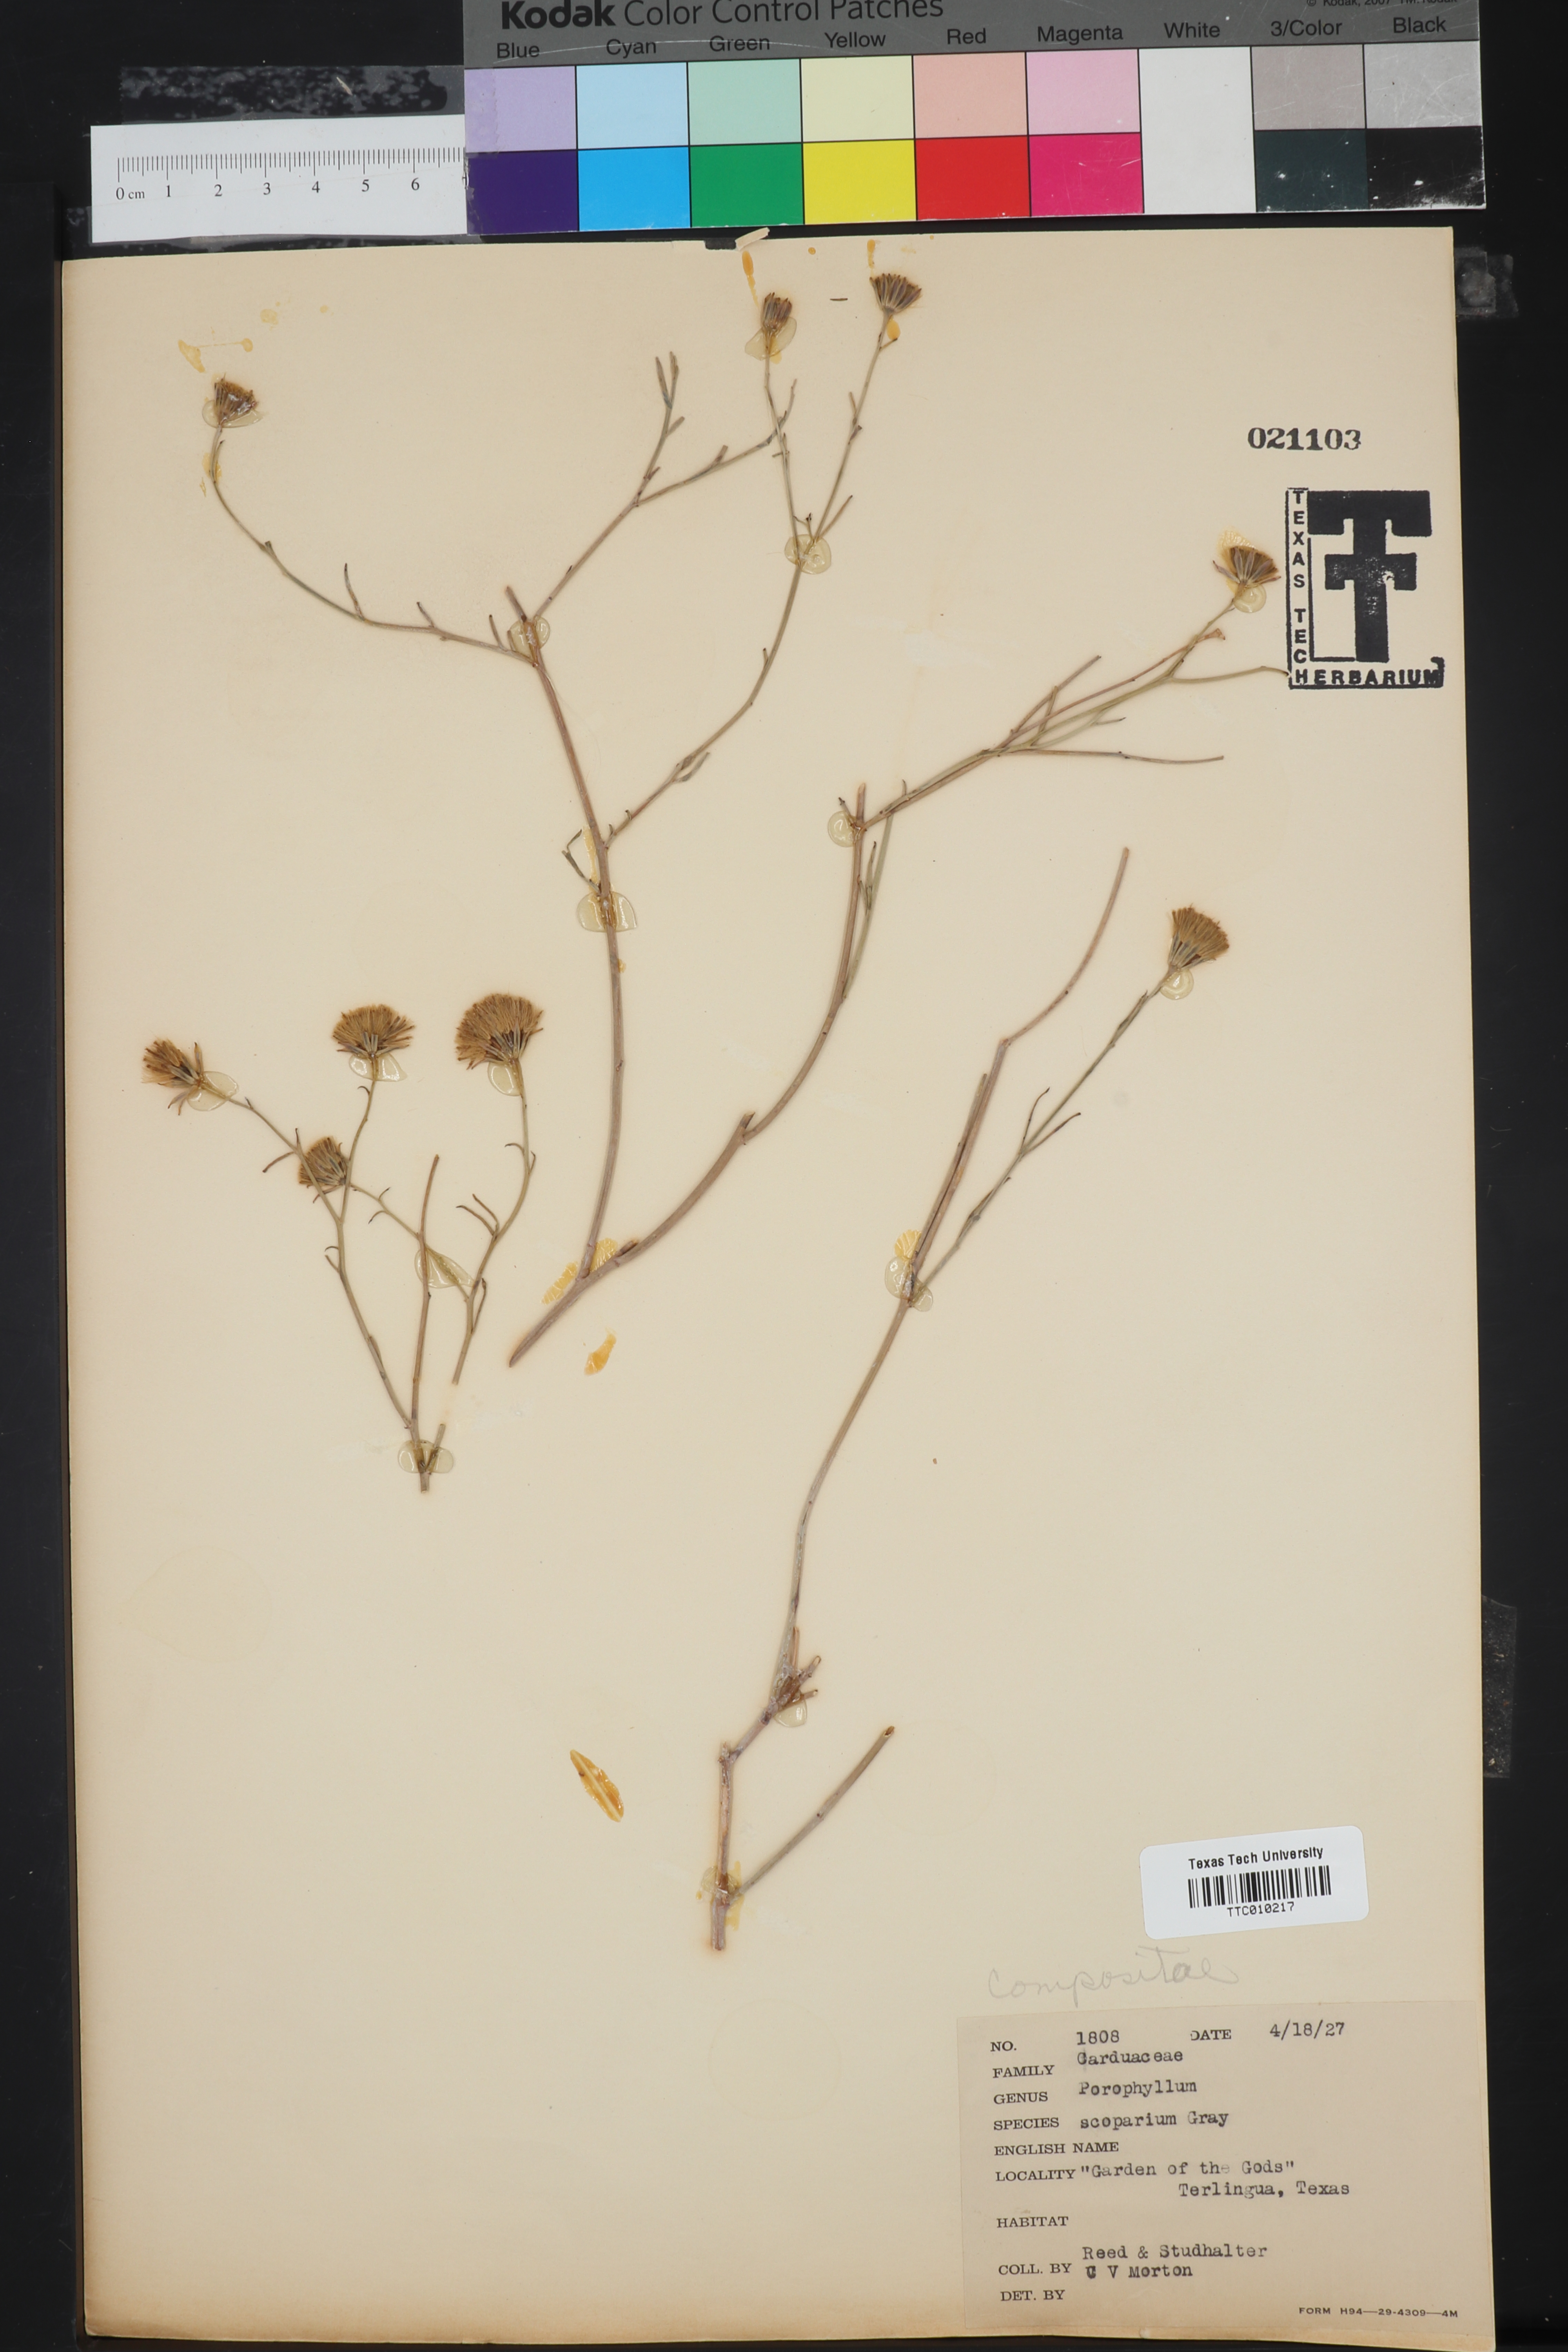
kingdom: Plantae
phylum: Tracheophyta
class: Magnoliopsida
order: Asterales
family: Asteraceae
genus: Porophyllum
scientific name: Porophyllum scoparium
